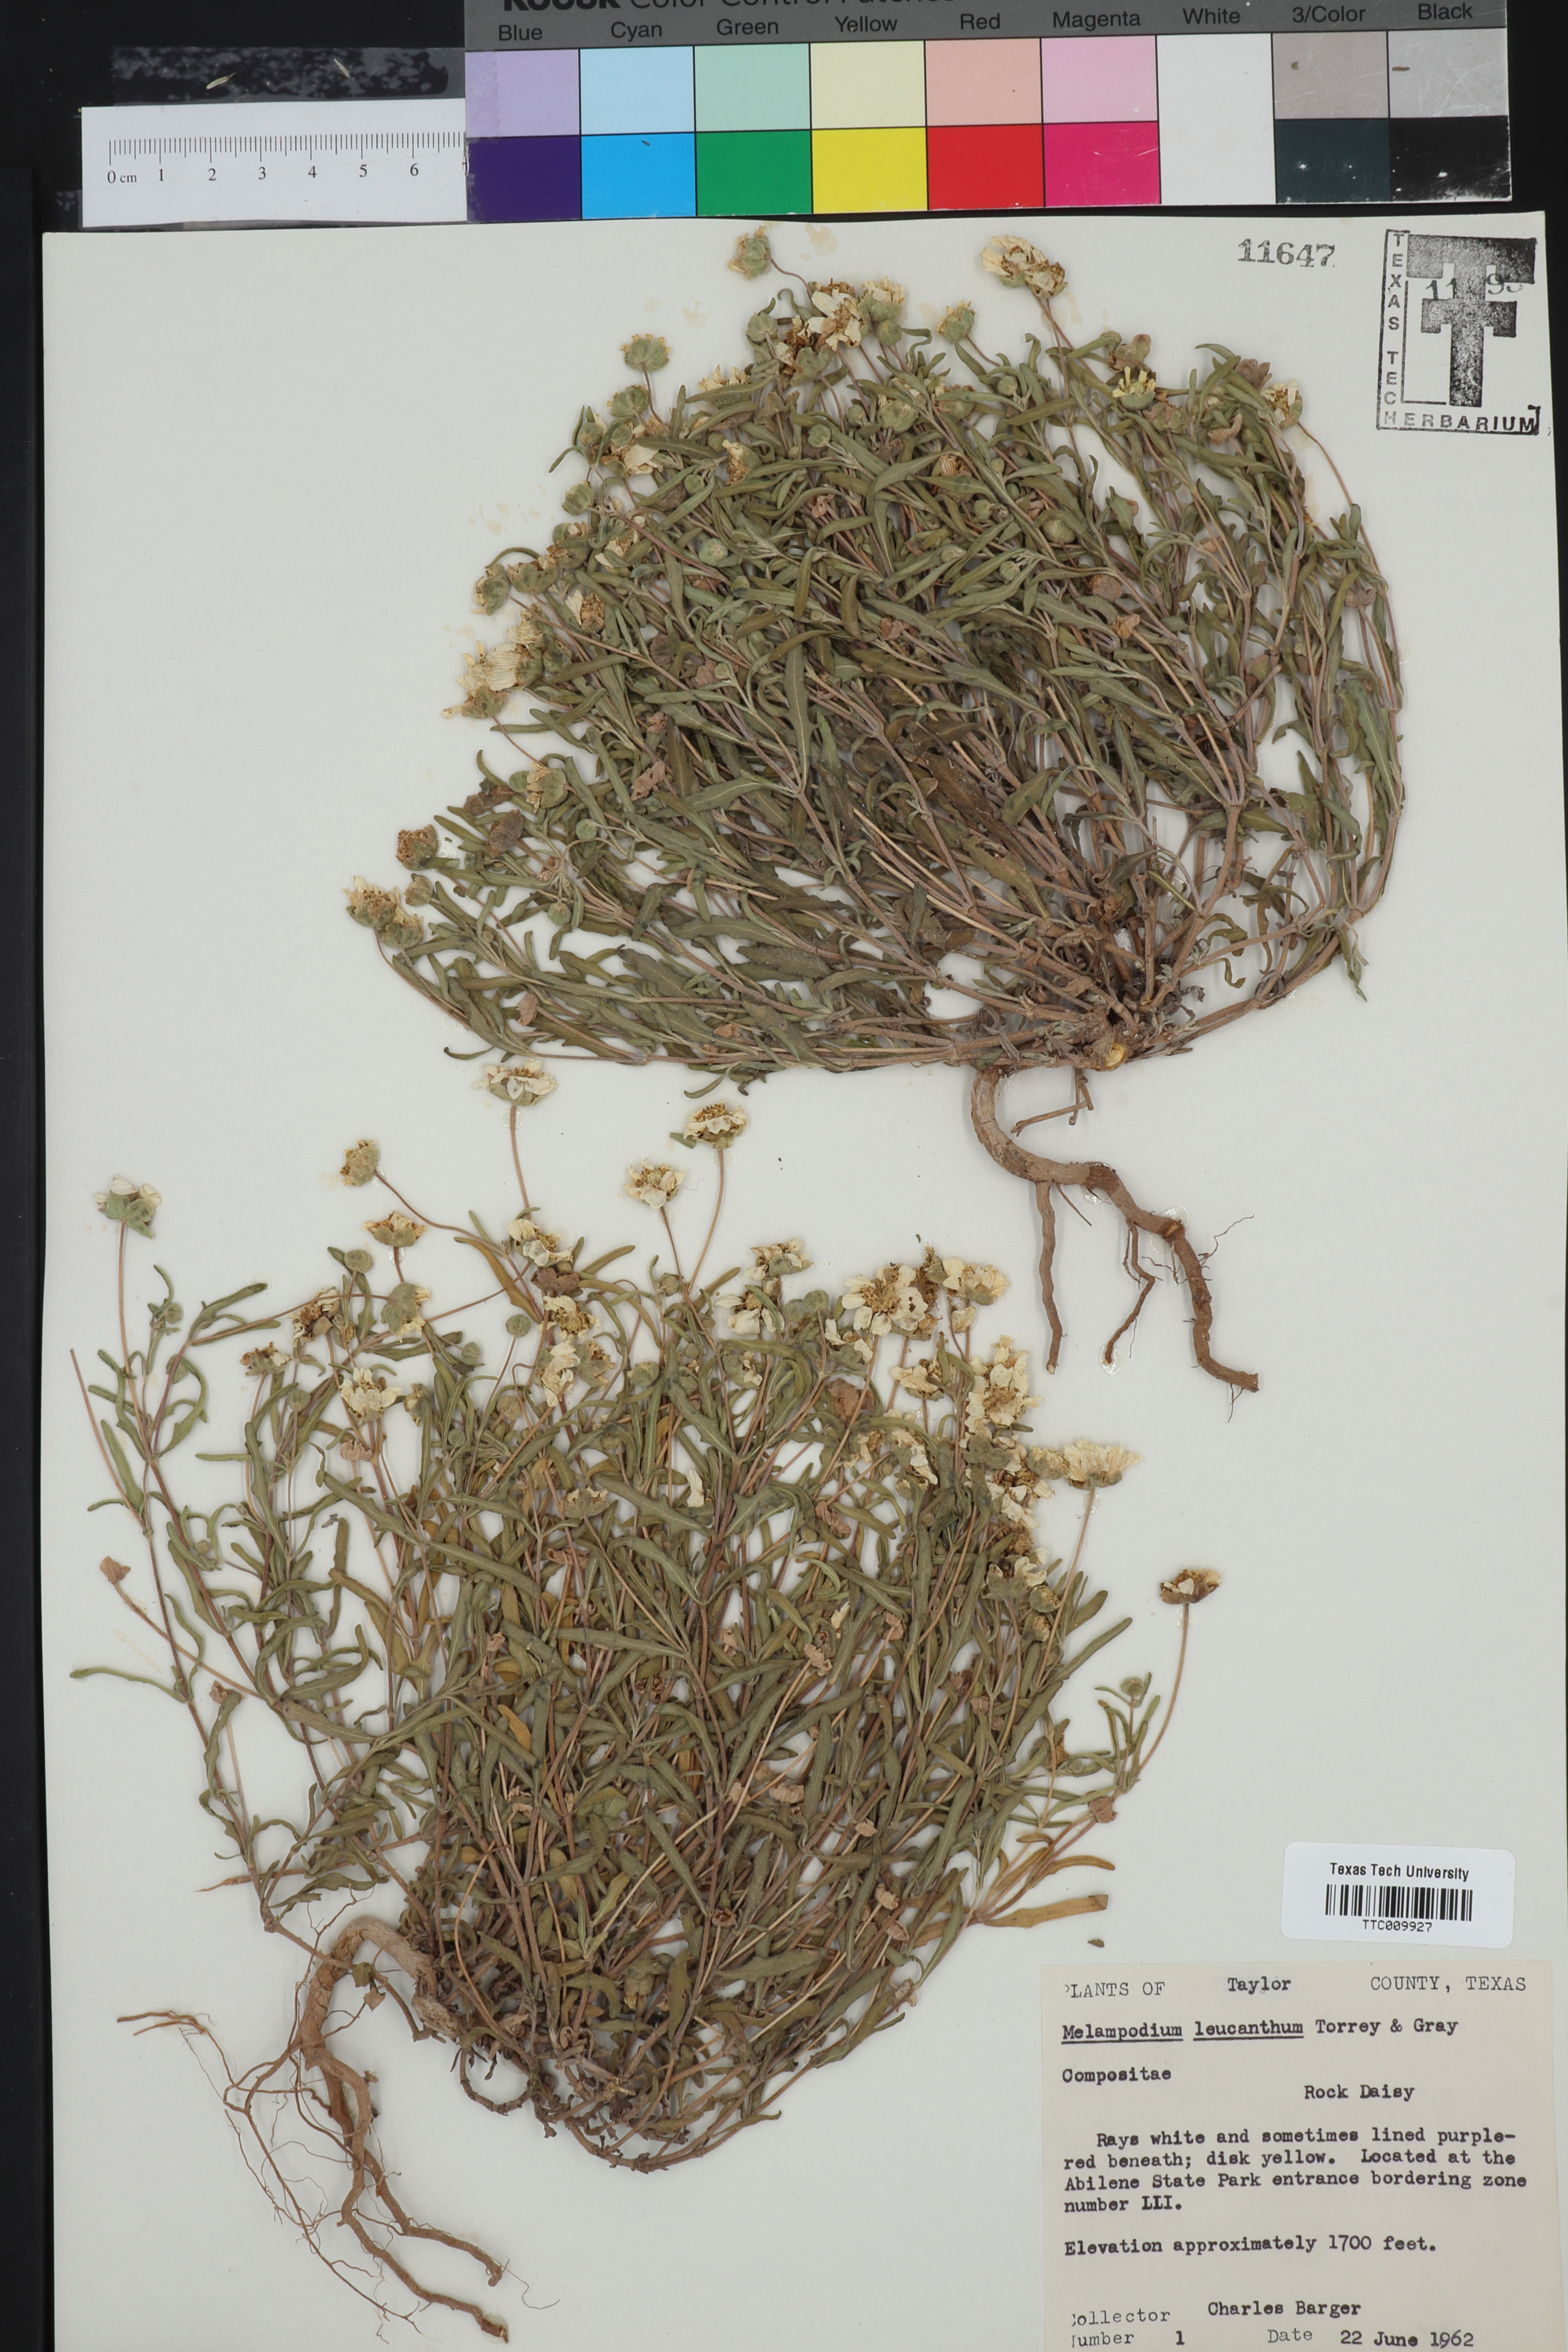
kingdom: Plantae
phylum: Tracheophyta
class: Magnoliopsida
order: Asterales
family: Asteraceae
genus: Melampodium
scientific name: Melampodium leucanthum
